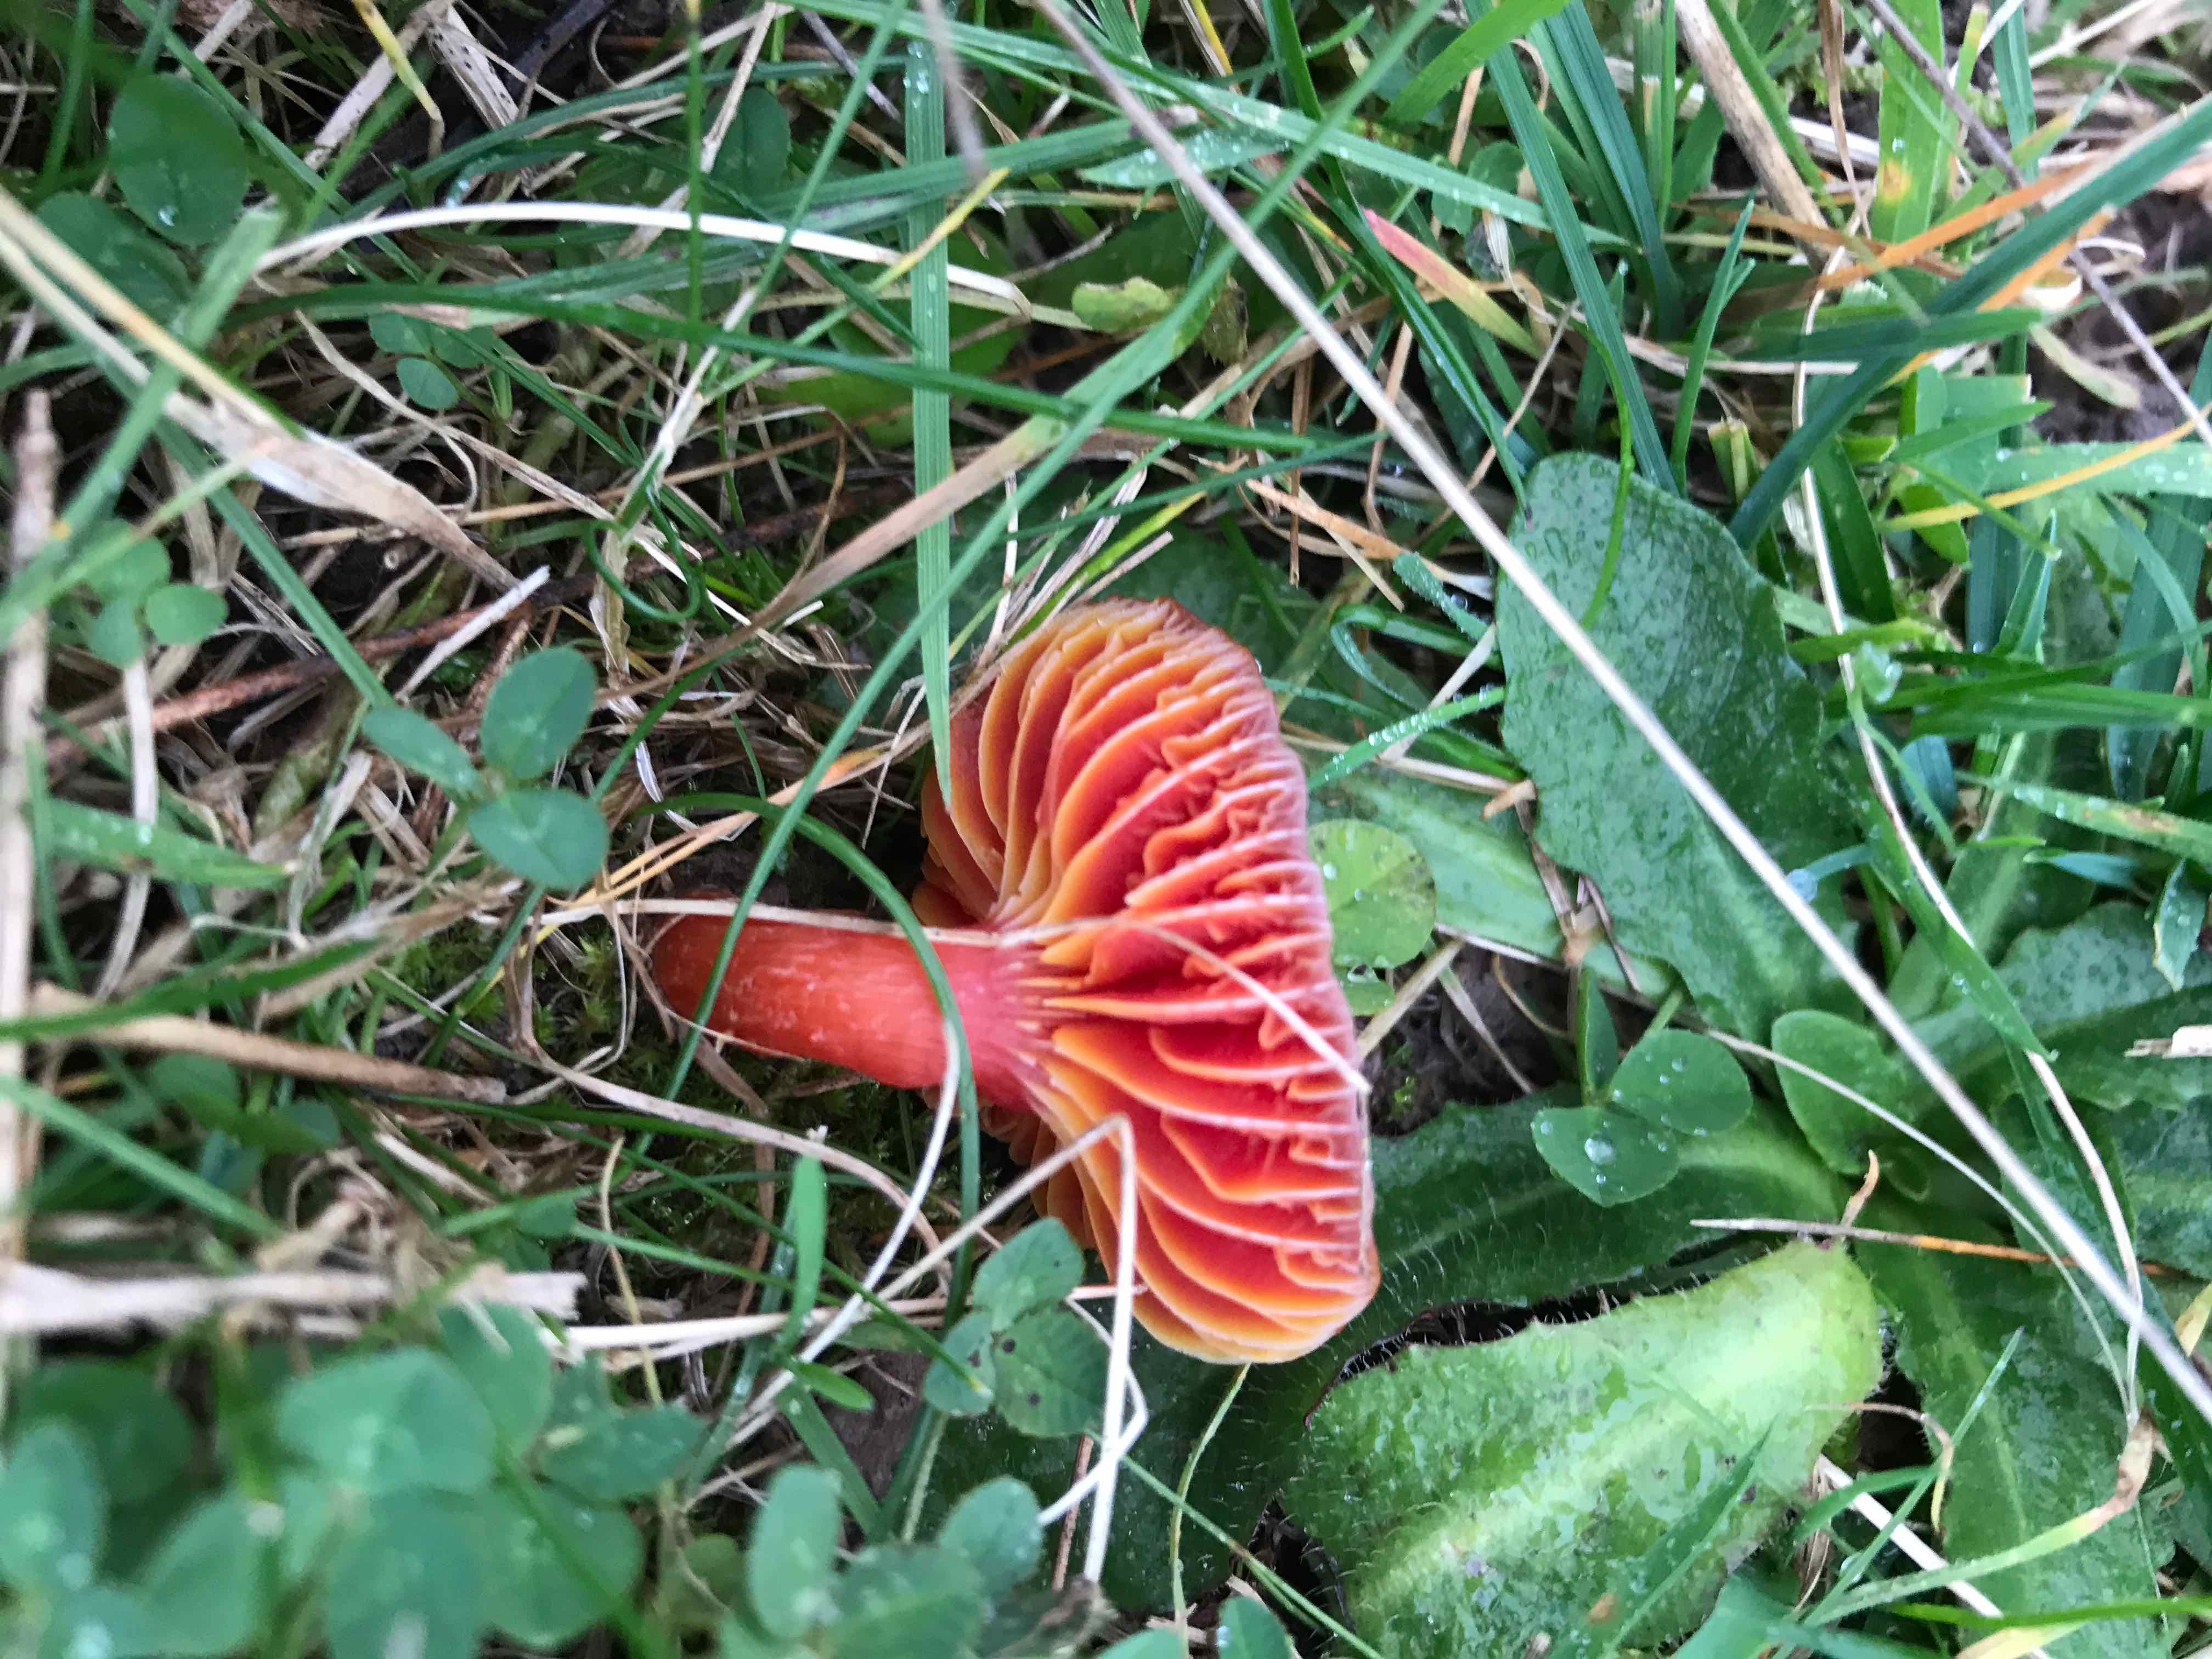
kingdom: Fungi
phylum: Basidiomycota
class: Agaricomycetes
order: Agaricales
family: Hygrophoraceae
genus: Hygrocybe
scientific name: Hygrocybe coccinea
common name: cinnober-vokshat
